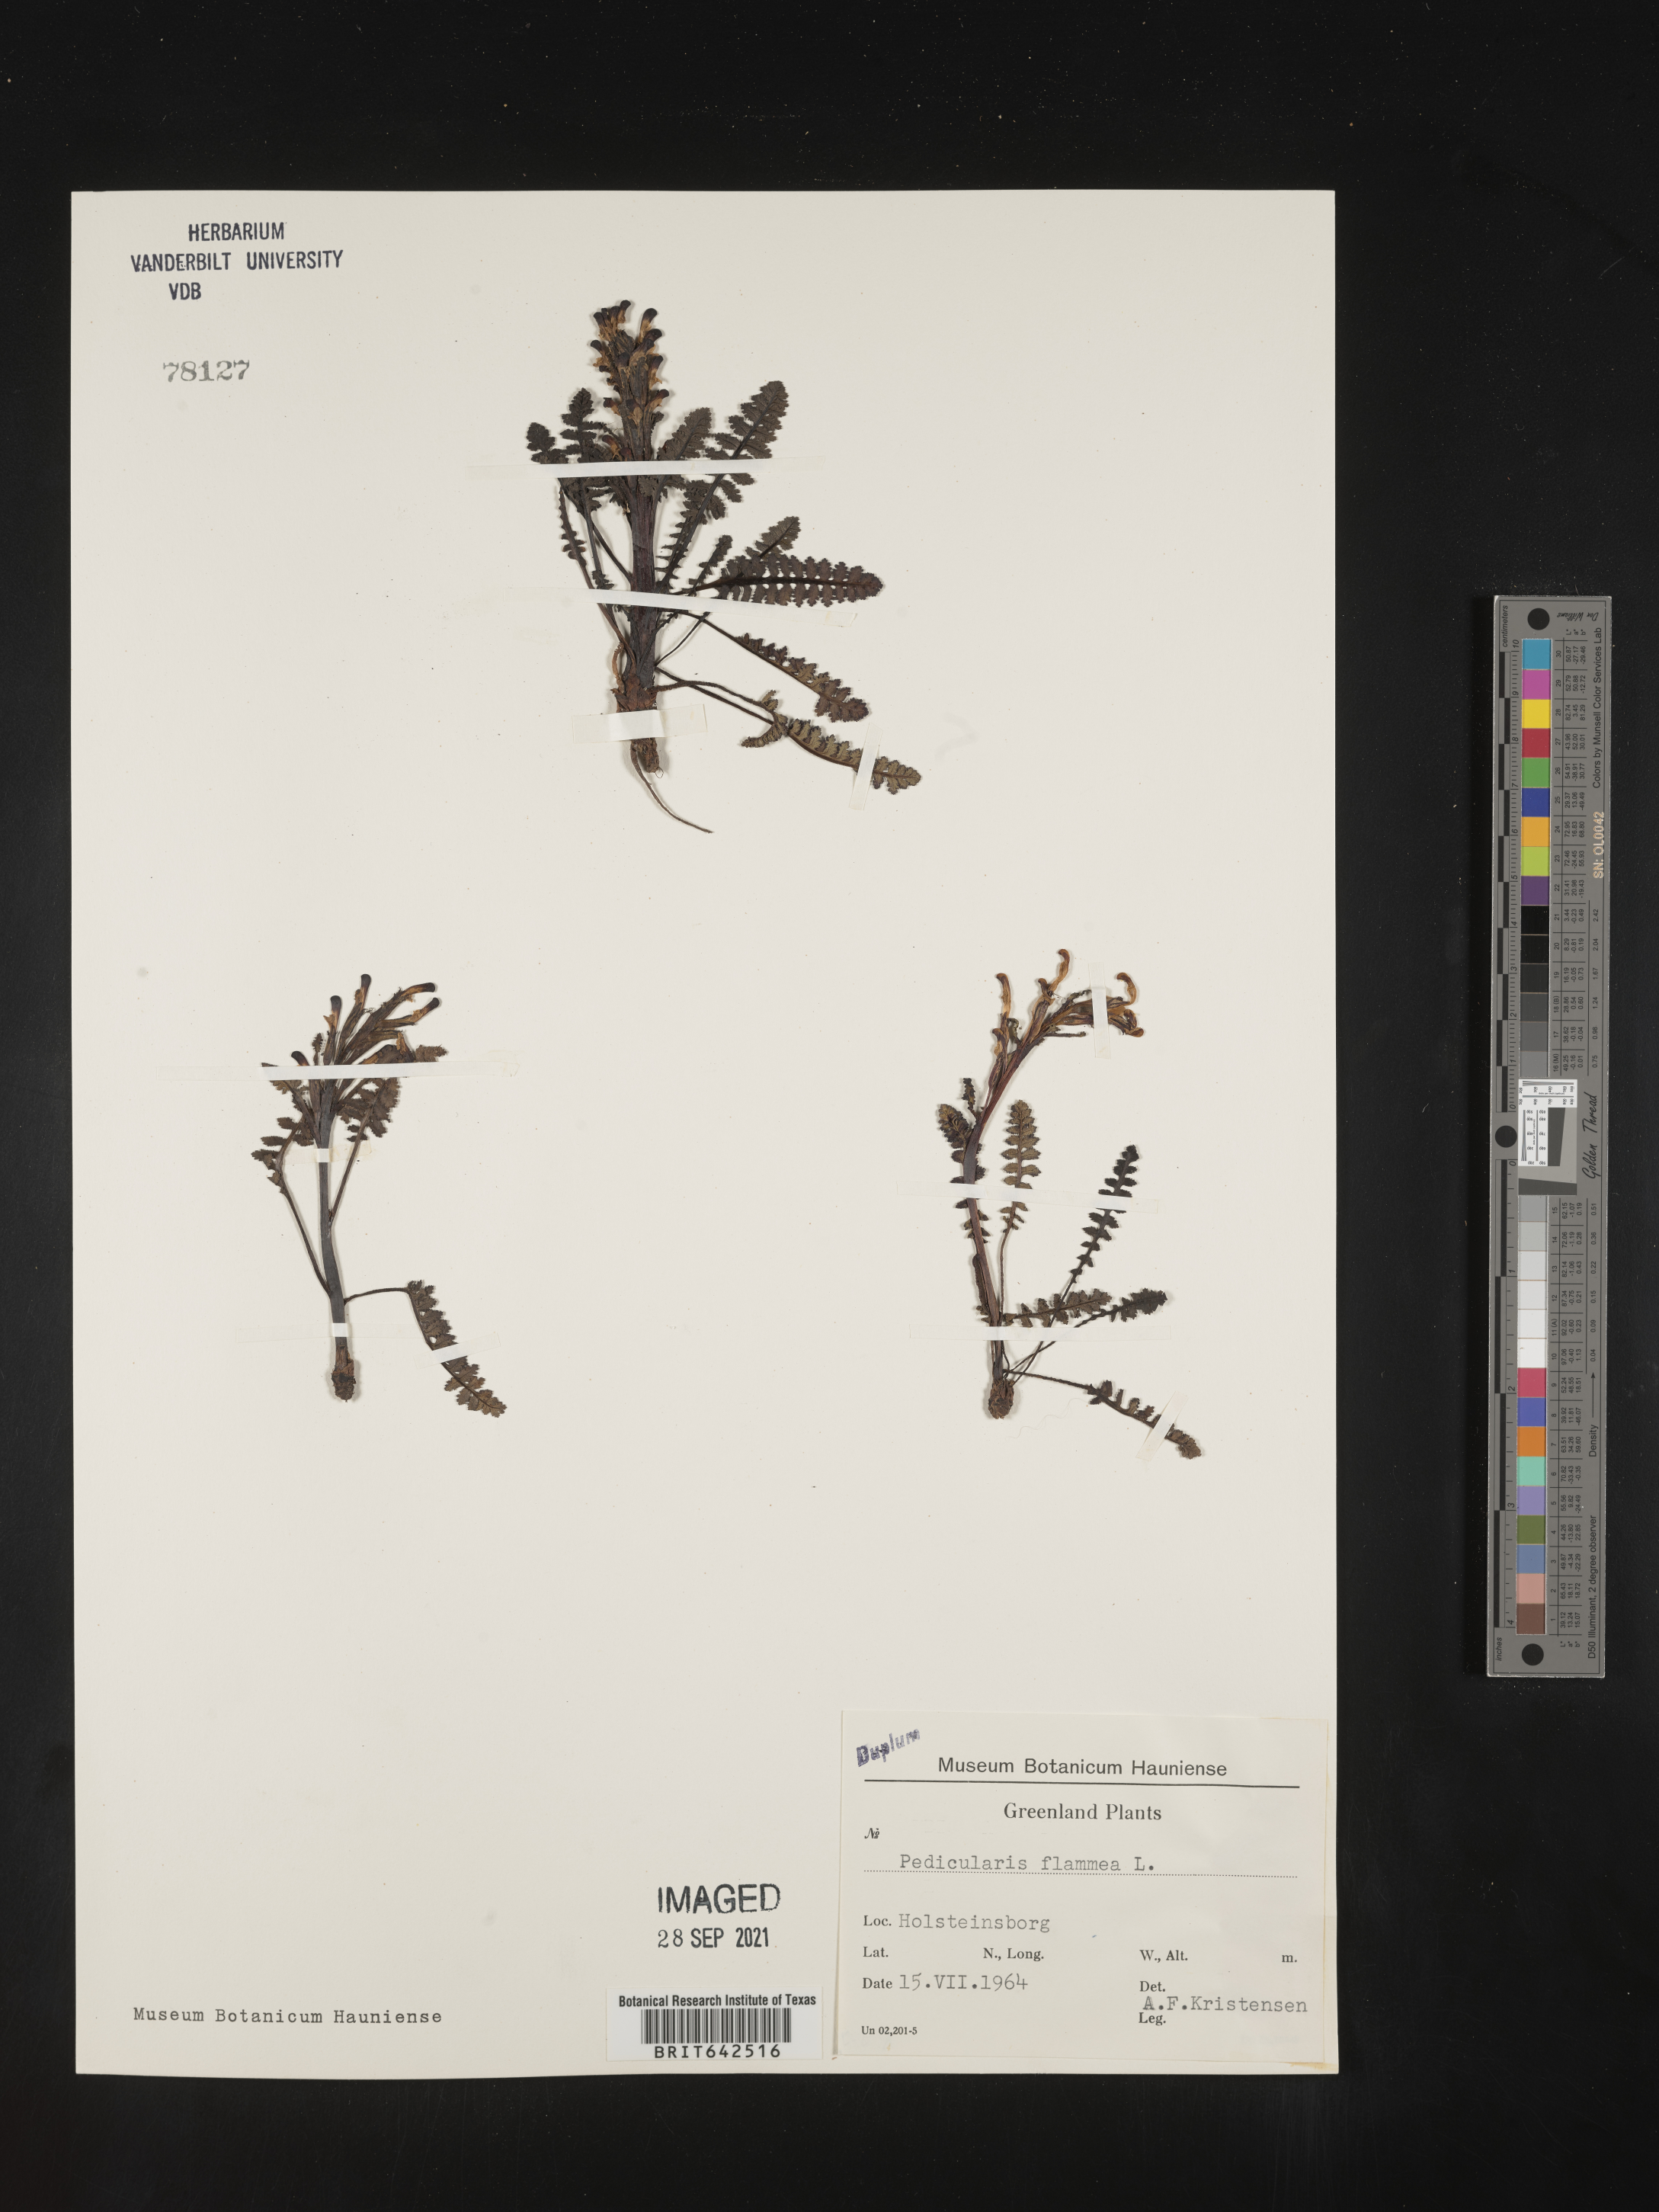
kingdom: Plantae
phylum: Tracheophyta
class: Magnoliopsida
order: Lamiales
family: Orobanchaceae
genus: Pedicularis
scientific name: Pedicularis
